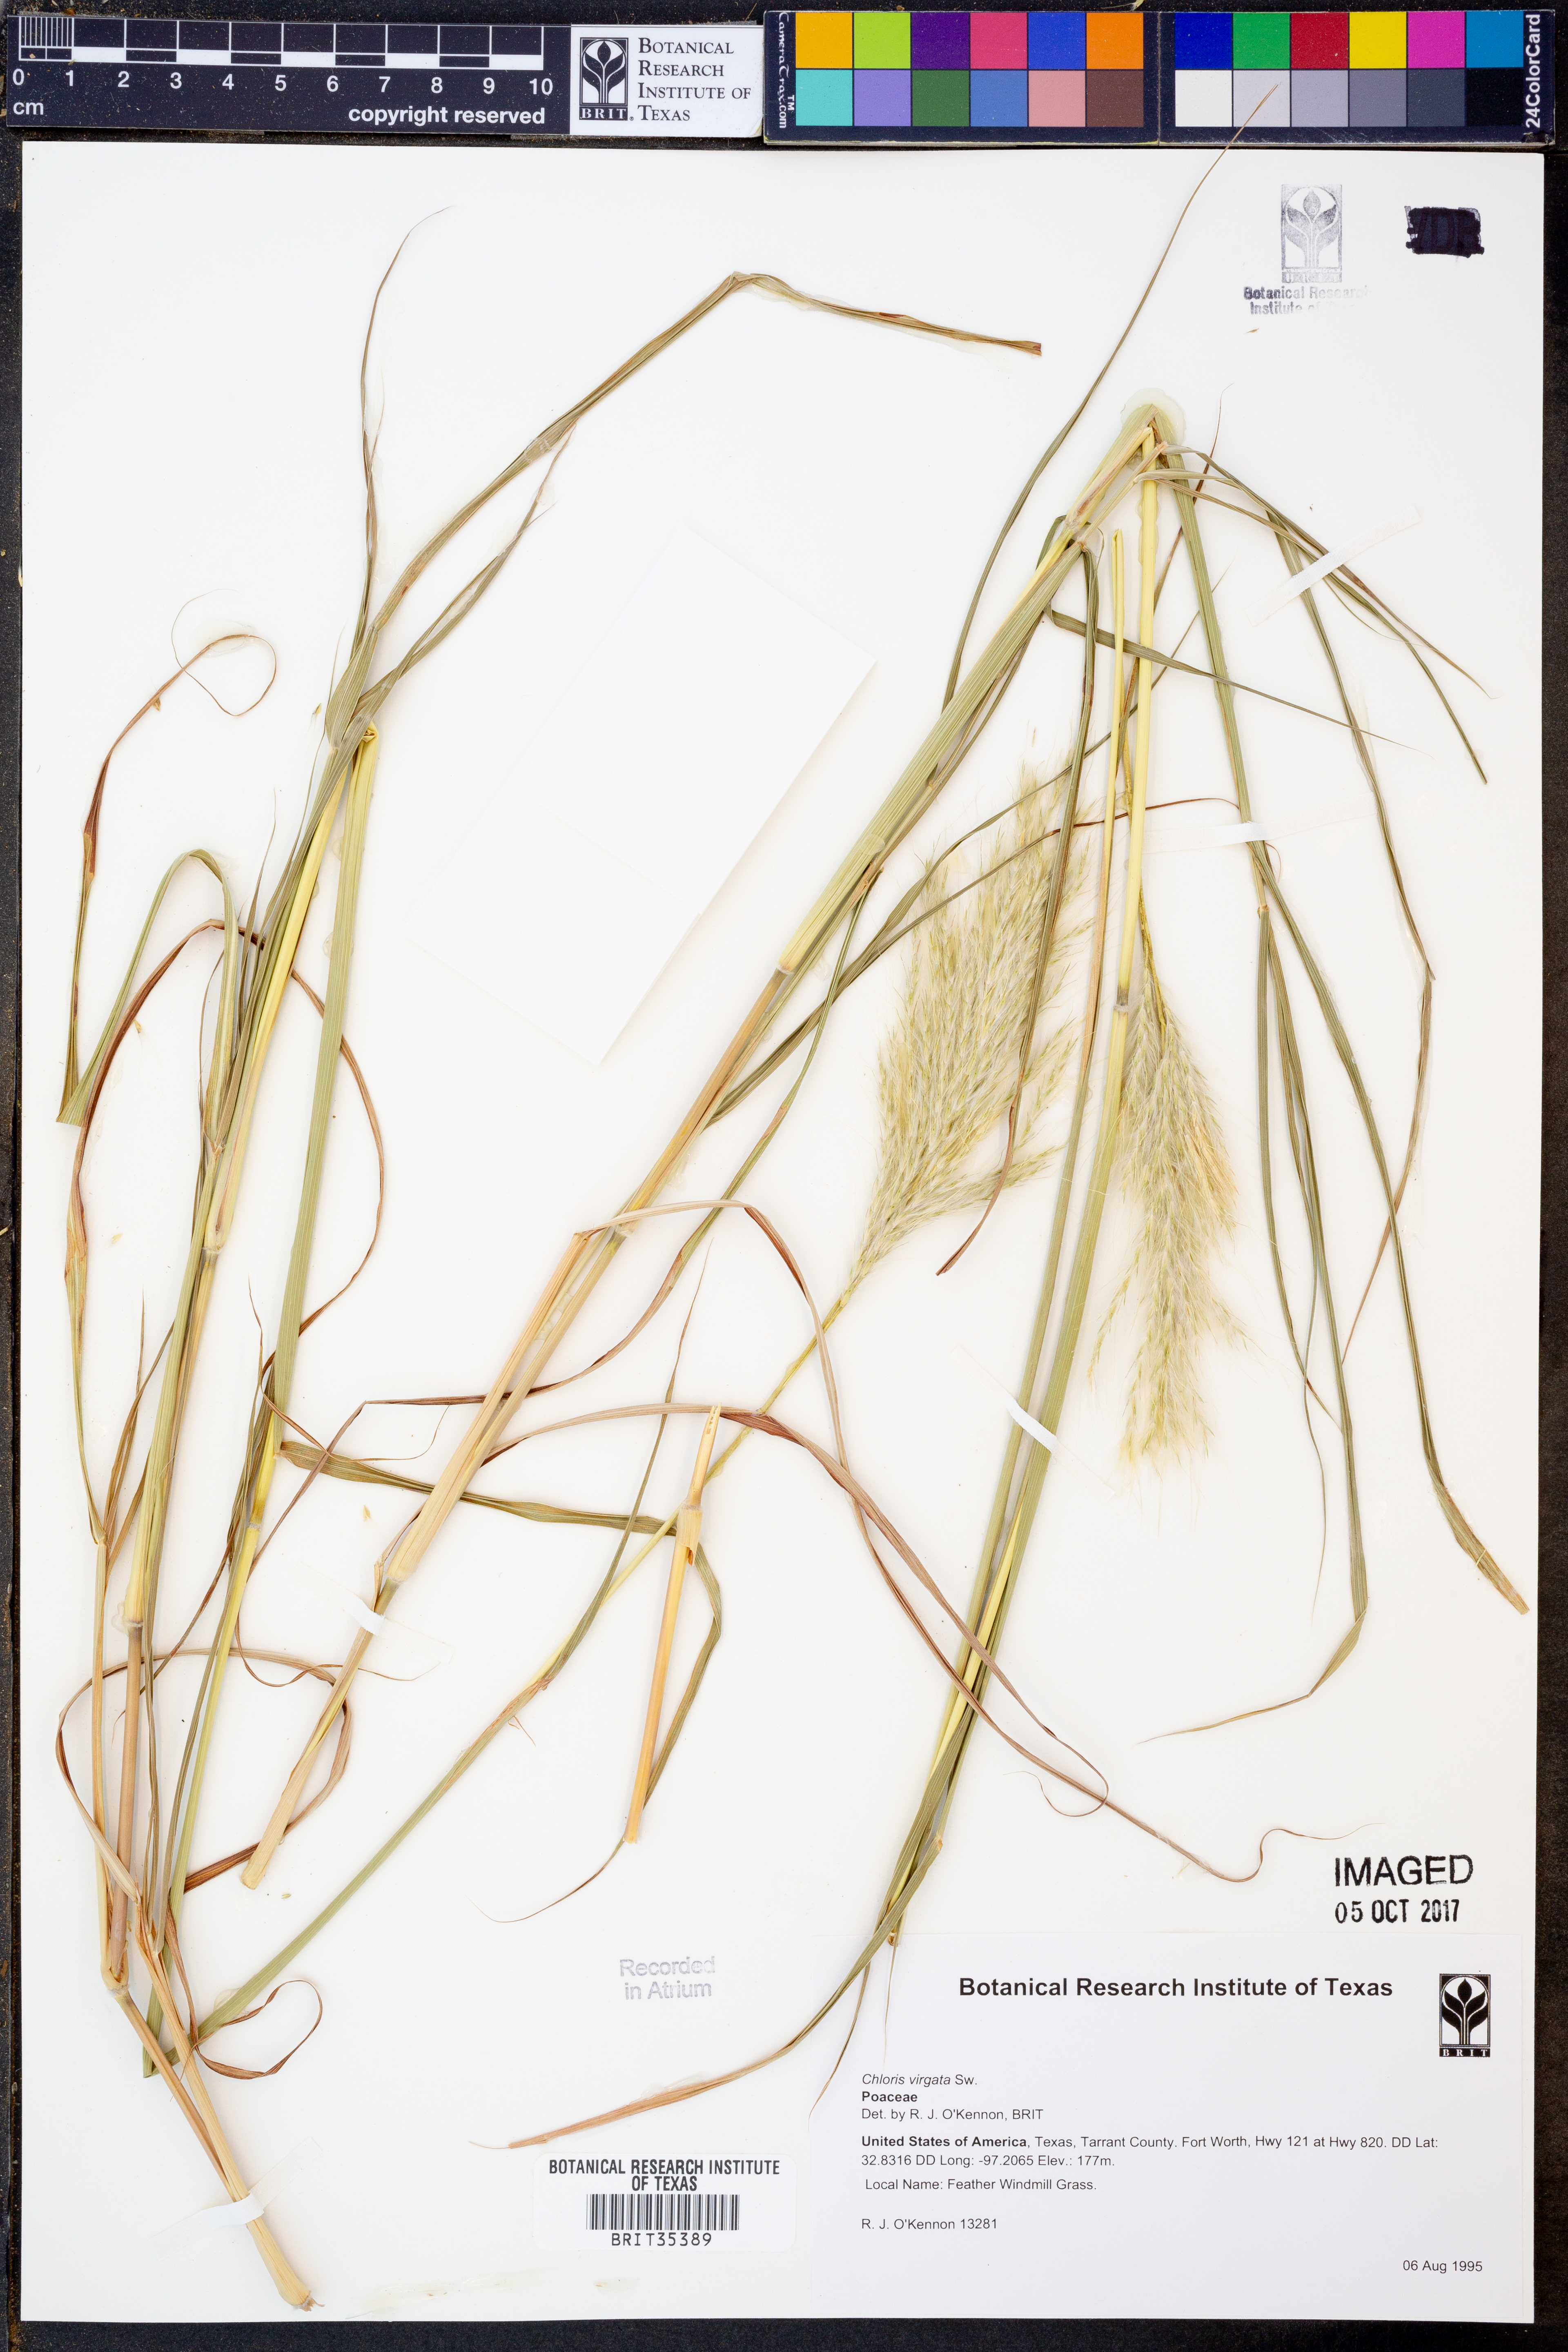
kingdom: Plantae
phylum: Tracheophyta
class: Liliopsida
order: Poales
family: Poaceae
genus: Chloris
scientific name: Chloris virgata
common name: Feathery rhodes-grass
